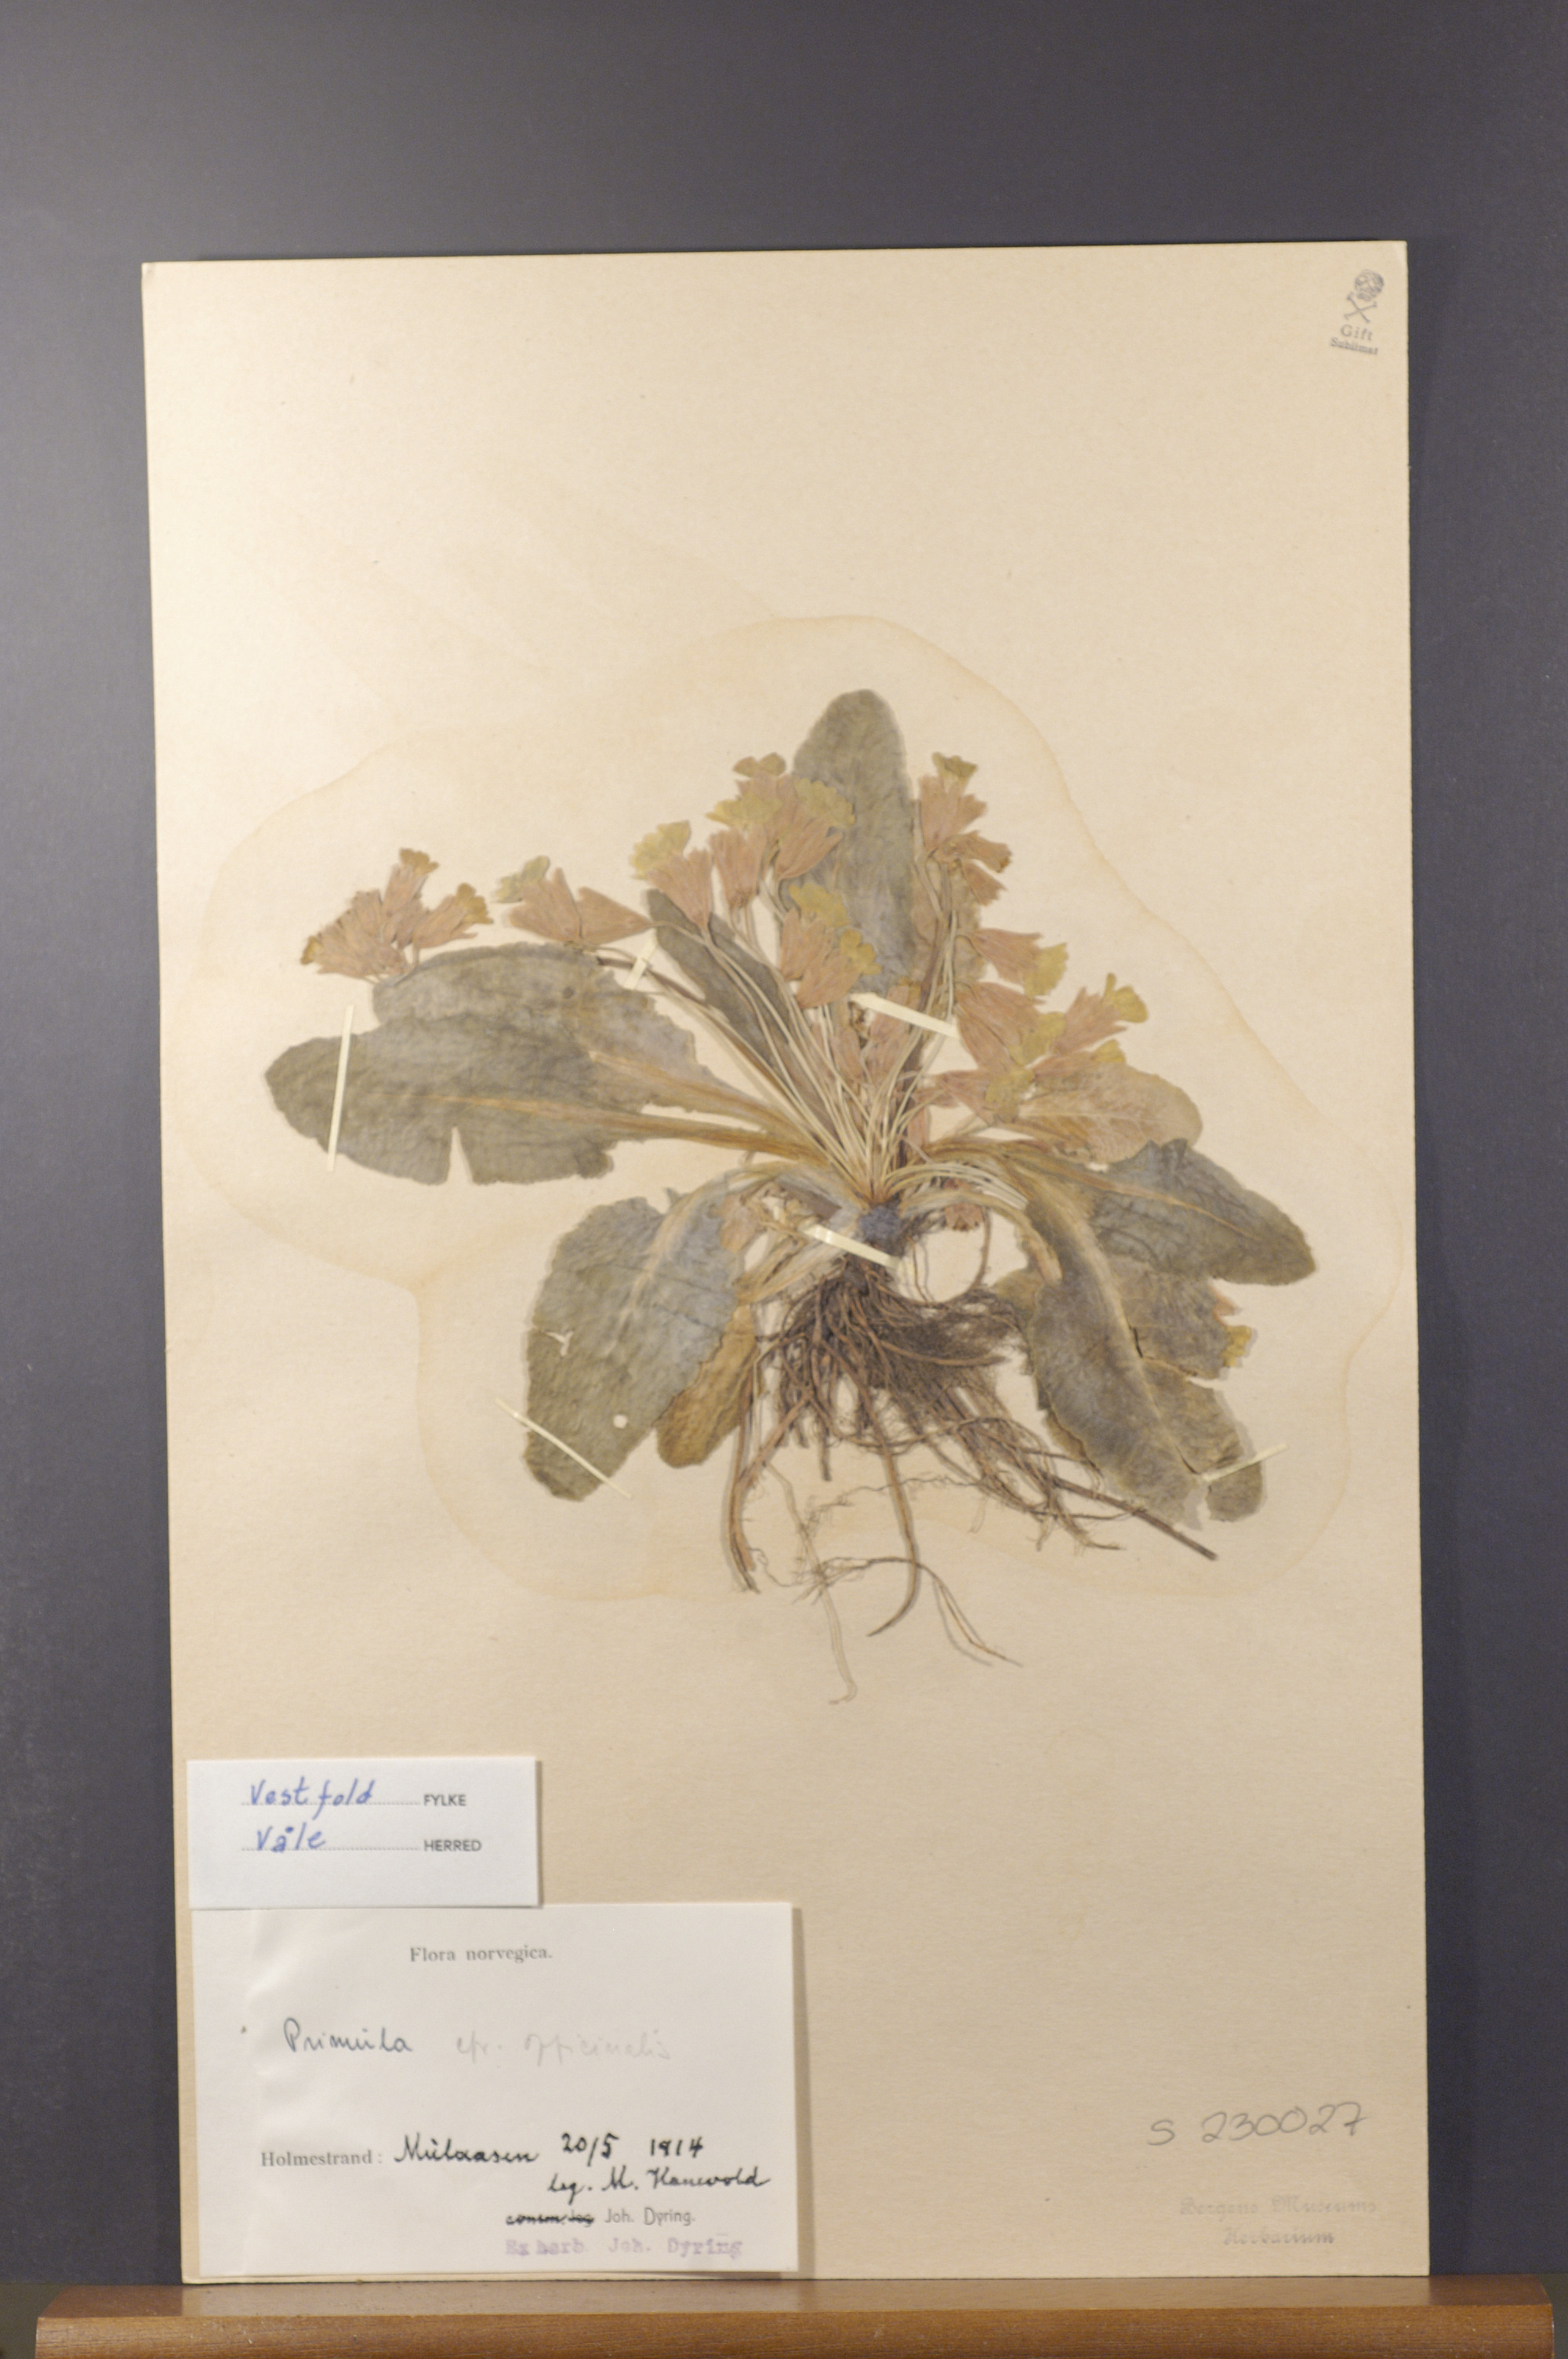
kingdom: Plantae
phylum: Tracheophyta
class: Magnoliopsida
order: Ericales
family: Primulaceae
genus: Primula
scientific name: Primula veris
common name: Cowslip
